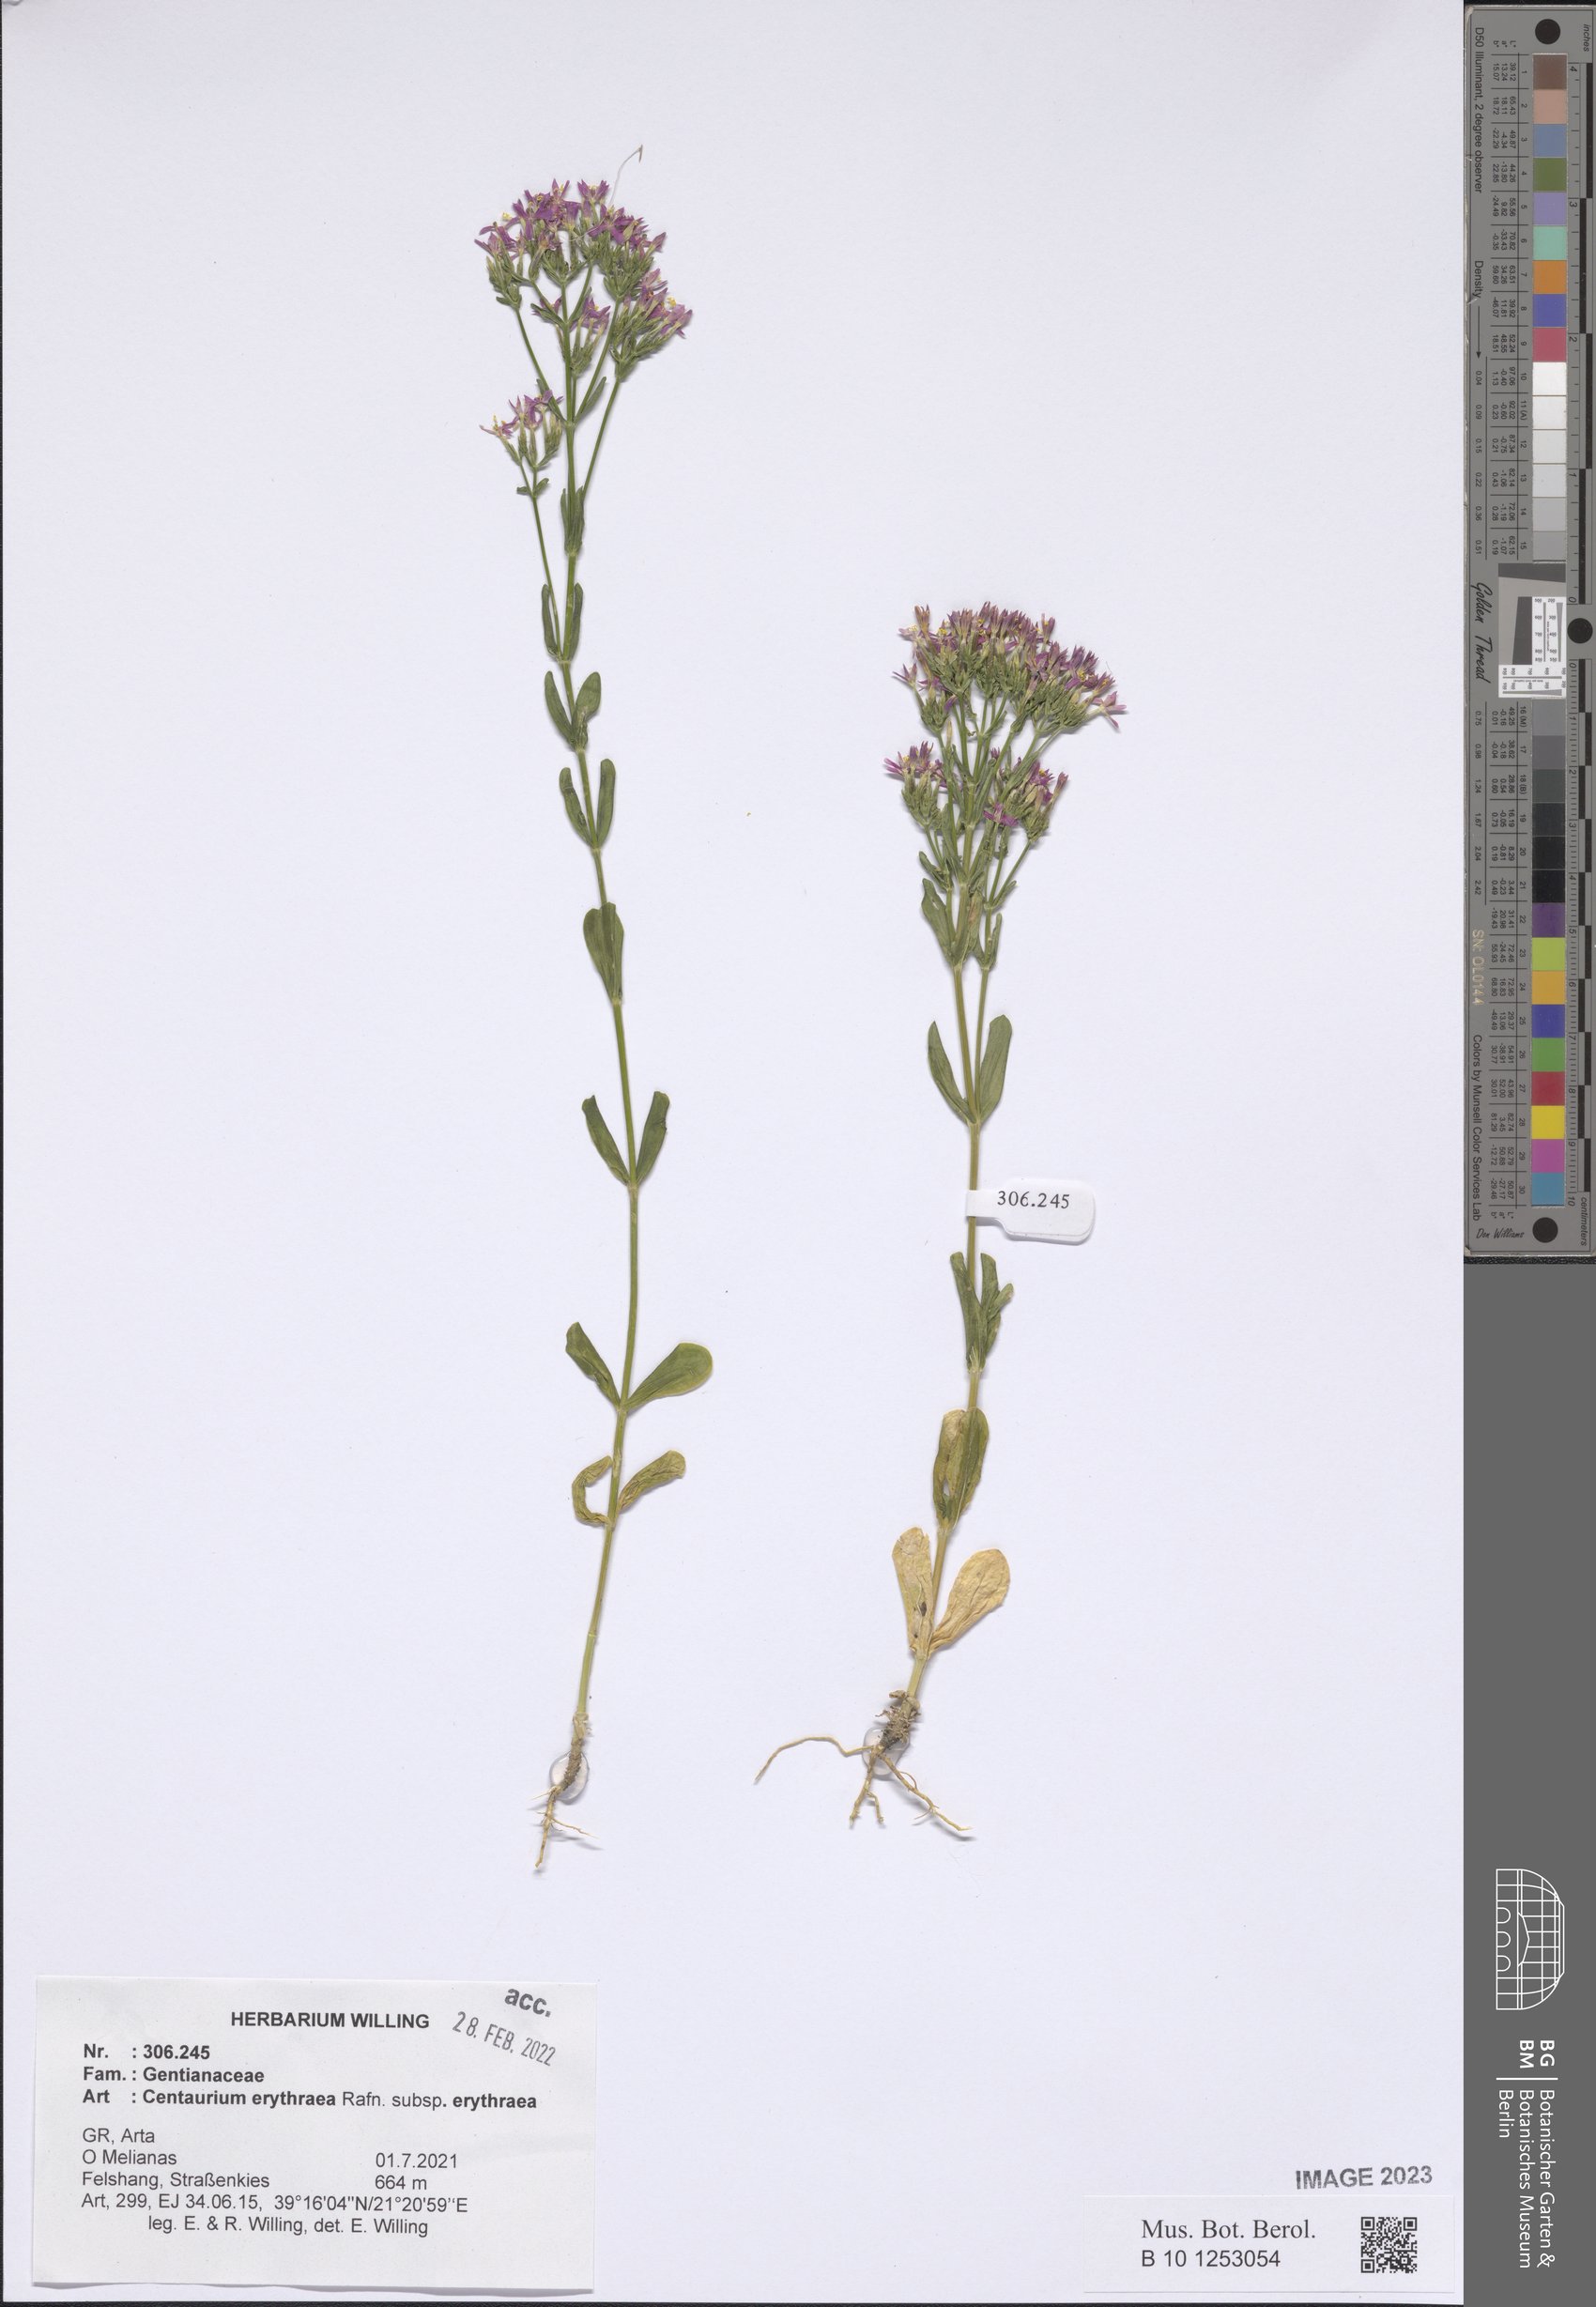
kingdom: Plantae
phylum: Tracheophyta
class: Magnoliopsida
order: Gentianales
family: Gentianaceae
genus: Centaurium
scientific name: Centaurium erythraea
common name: Common centaury
